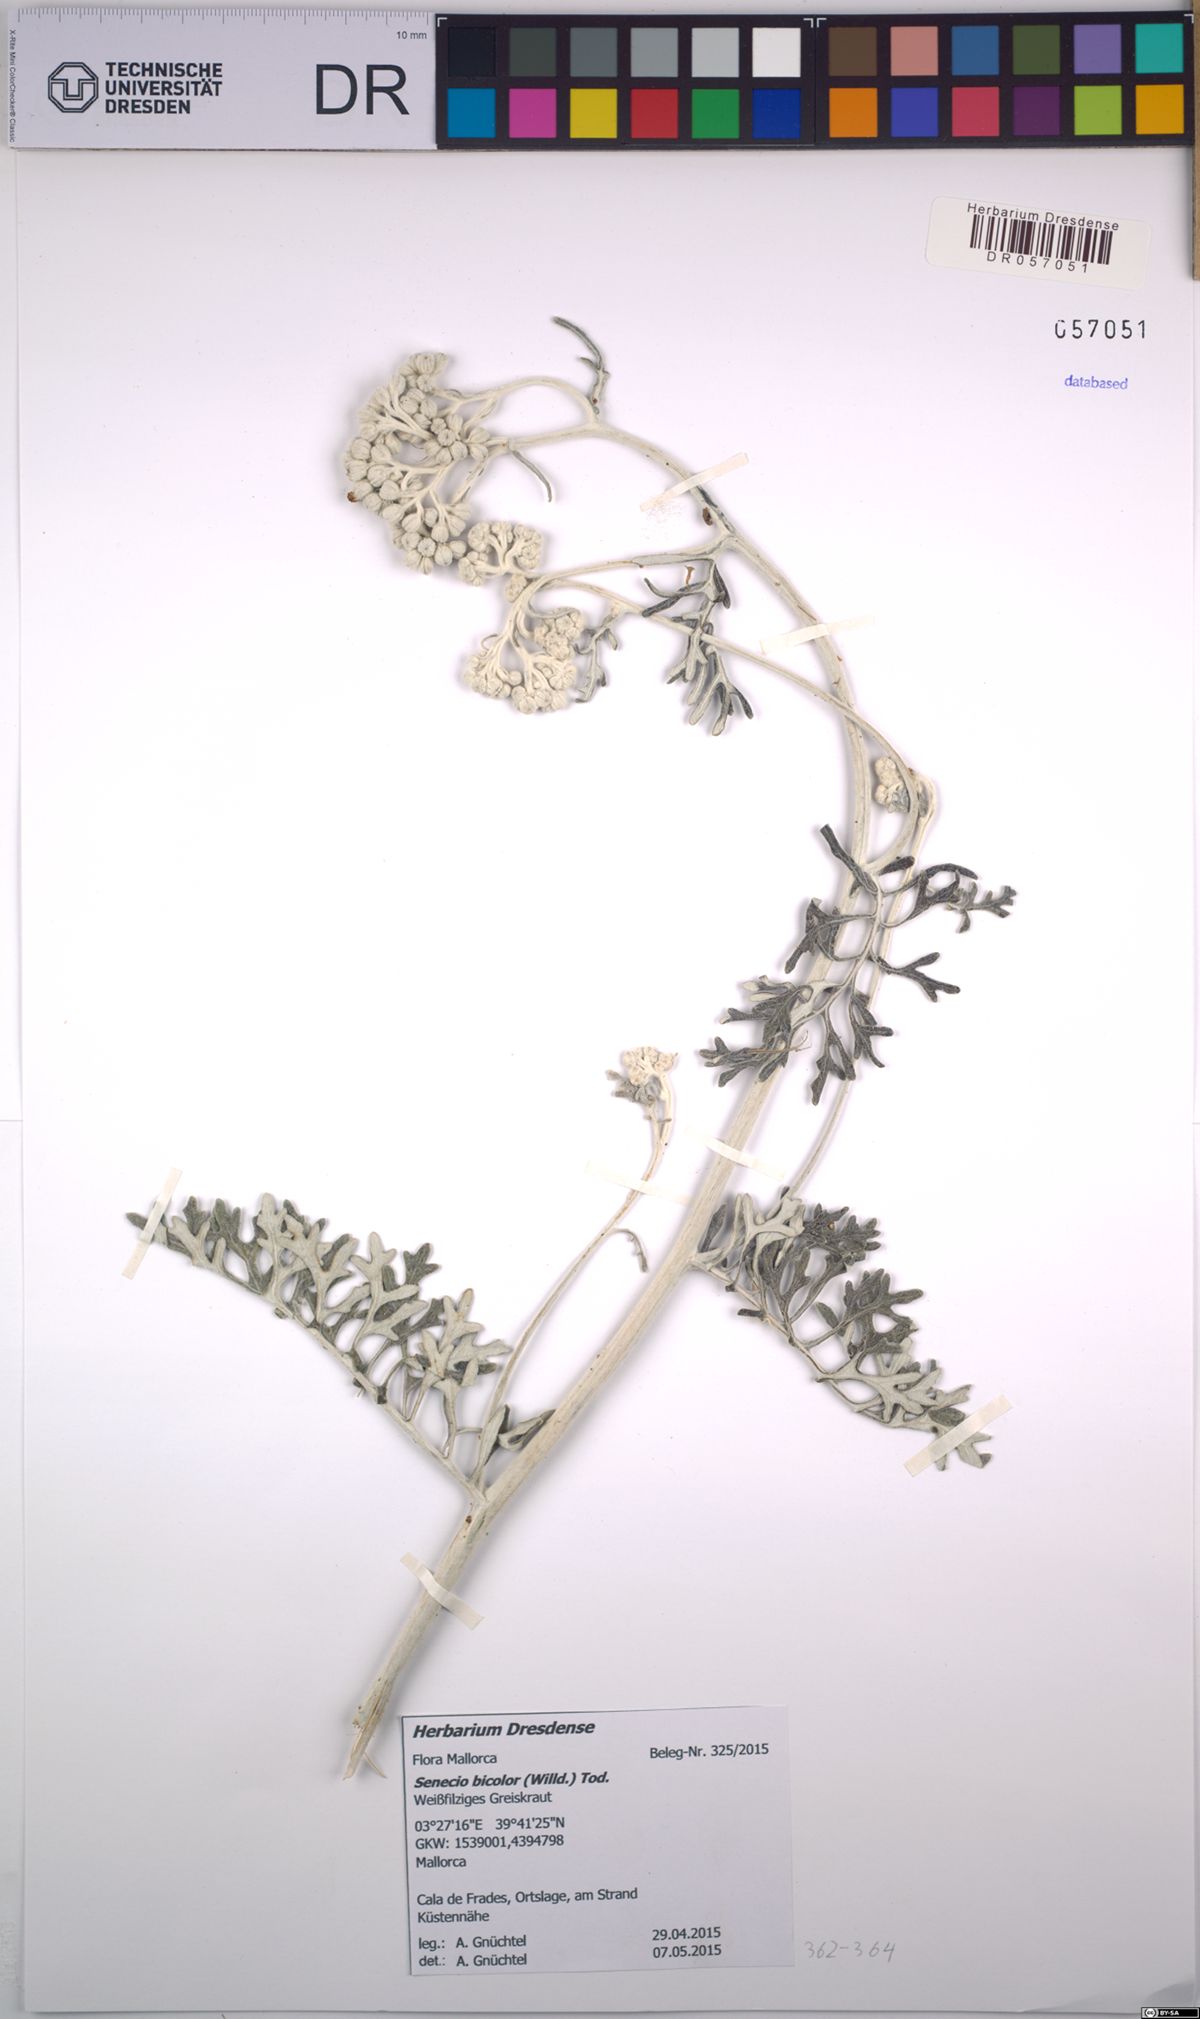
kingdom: Plantae
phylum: Tracheophyta
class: Magnoliopsida
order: Asterales
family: Asteraceae
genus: Jacobaea
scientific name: Jacobaea maritima
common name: Silver ragwort
